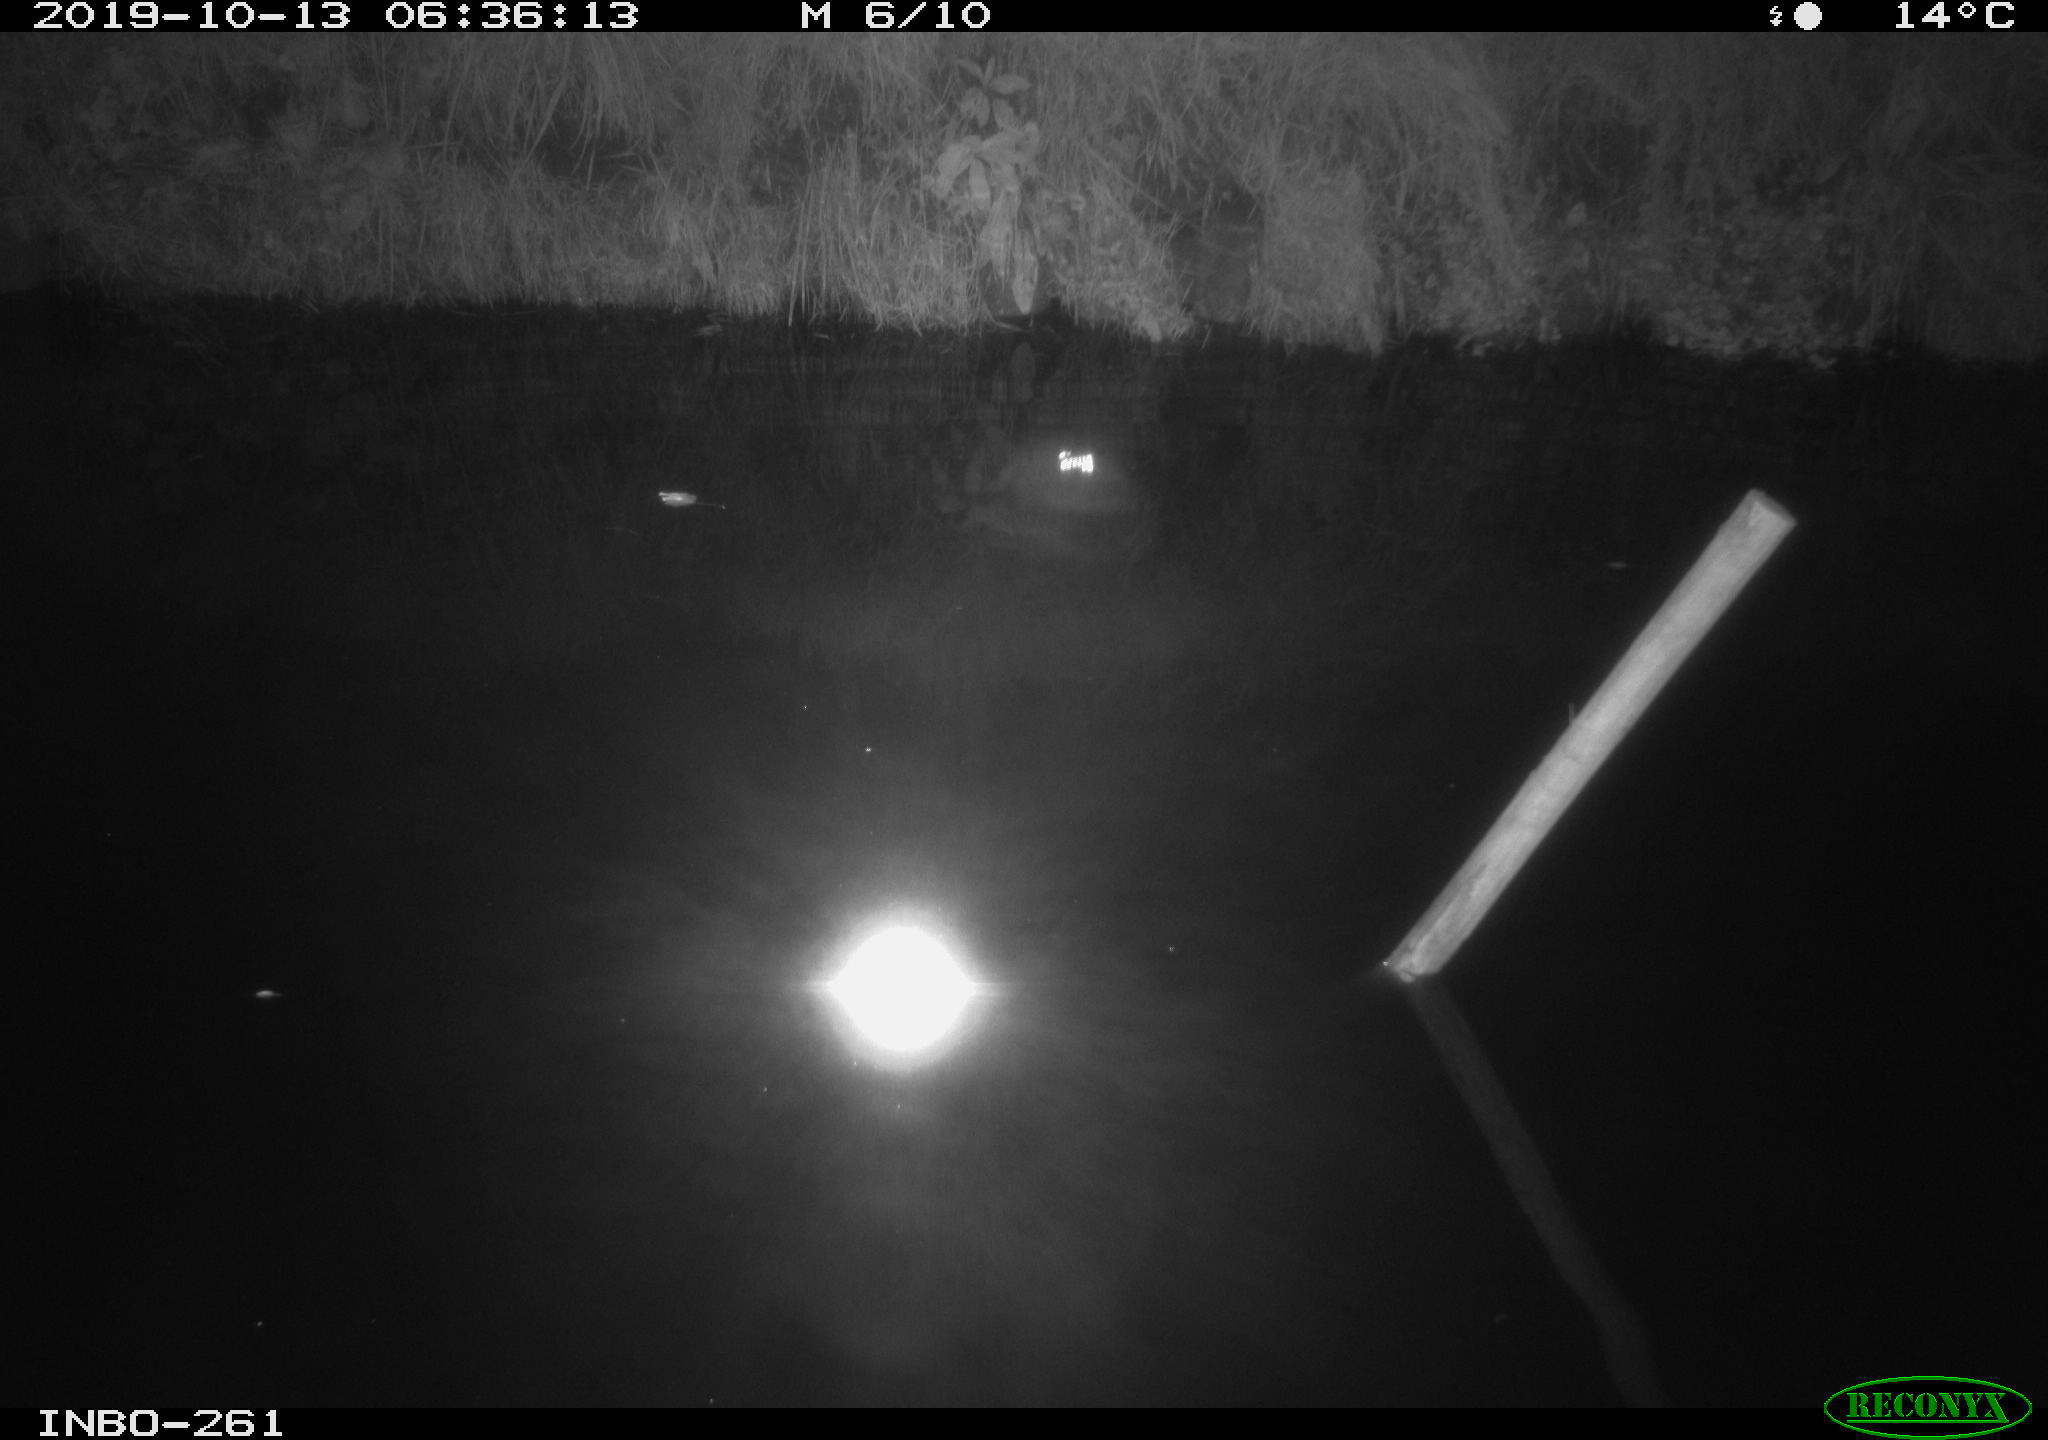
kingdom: Animalia
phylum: Chordata
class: Aves
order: Anseriformes
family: Anatidae
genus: Anas
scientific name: Anas platyrhynchos
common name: Mallard
